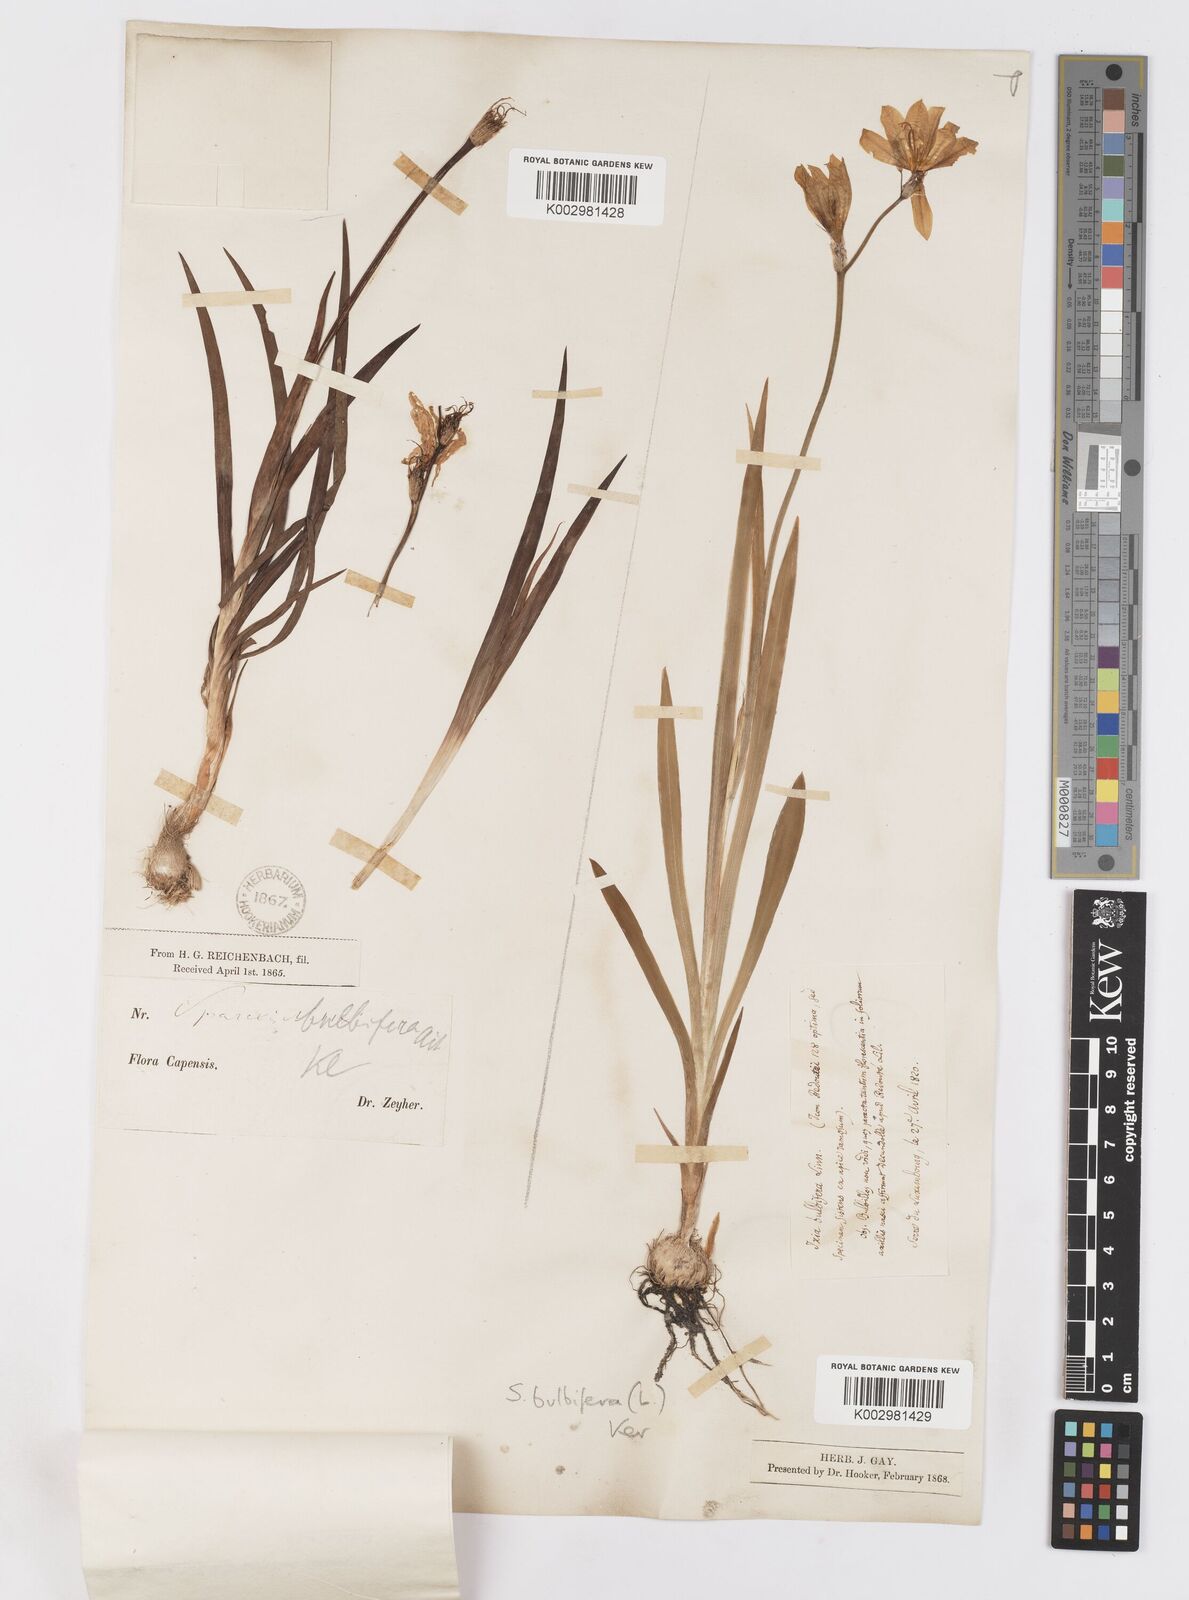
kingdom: Plantae
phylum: Tracheophyta
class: Liliopsida
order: Asparagales
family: Iridaceae
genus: Sparaxis
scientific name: Sparaxis bulbifera
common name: Harlequin-flower
